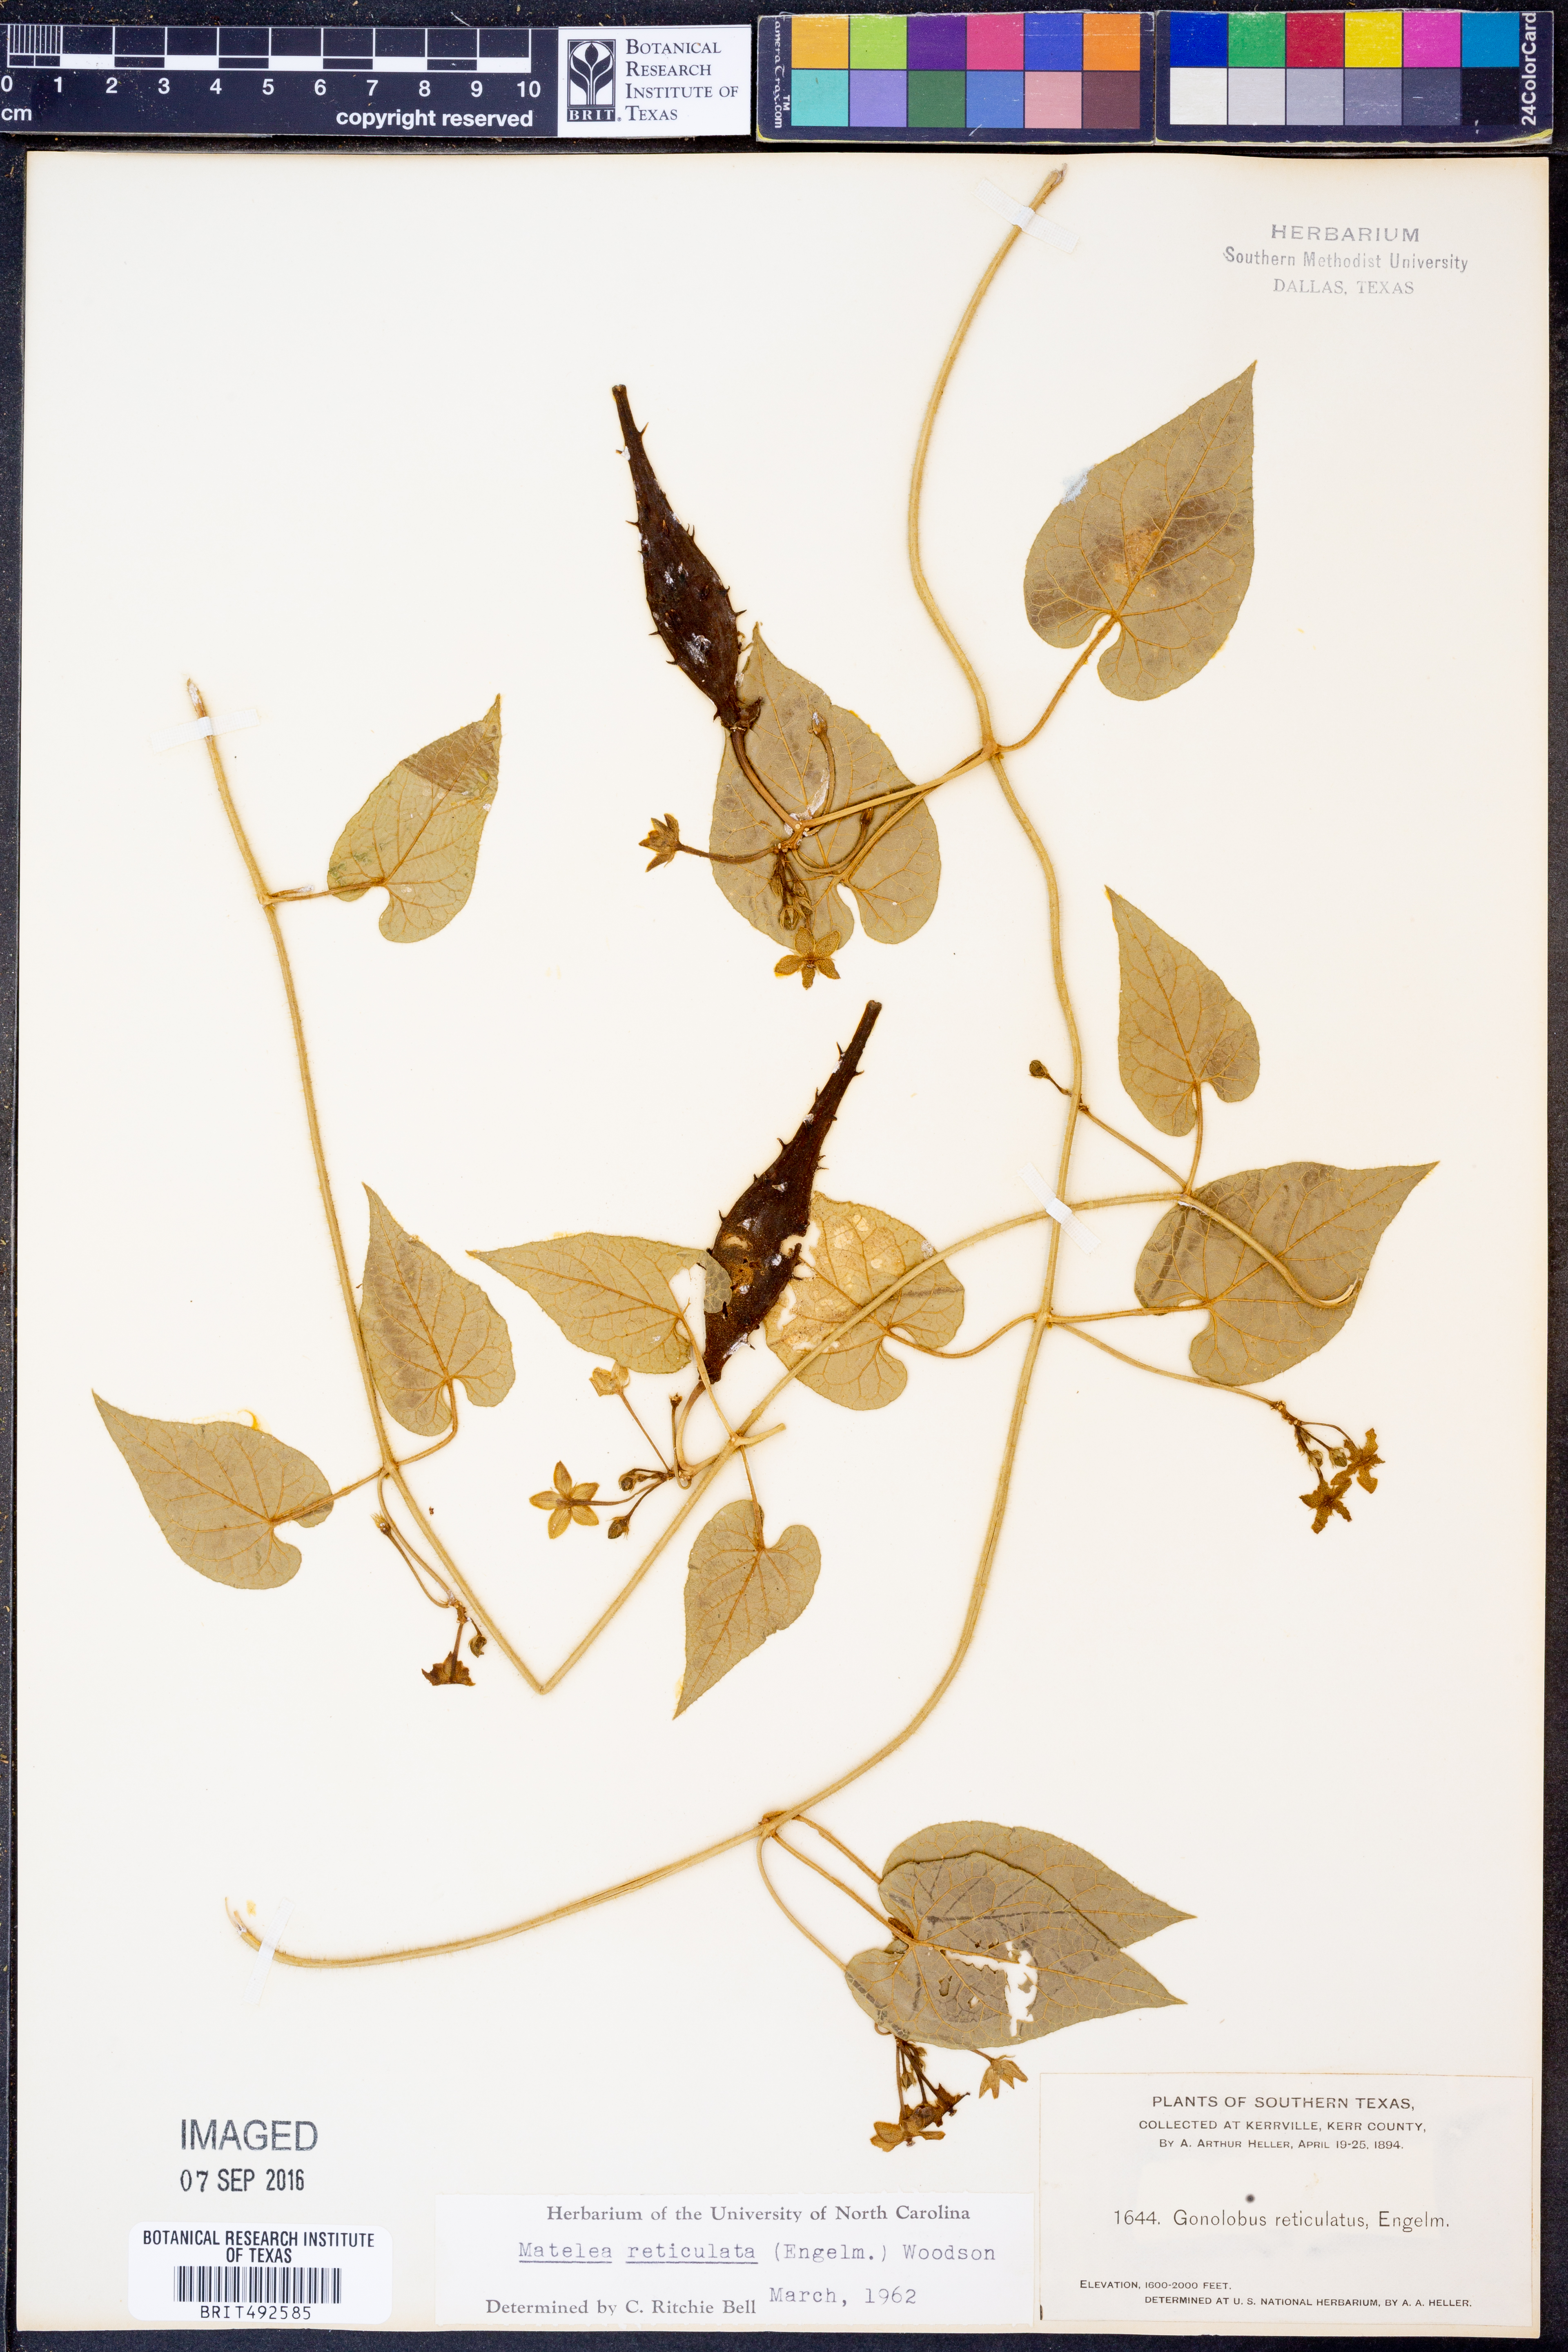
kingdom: Plantae
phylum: Tracheophyta
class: Magnoliopsida
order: Gentianales
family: Apocynaceae
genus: Dictyanthus
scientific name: Dictyanthus reticulatus
